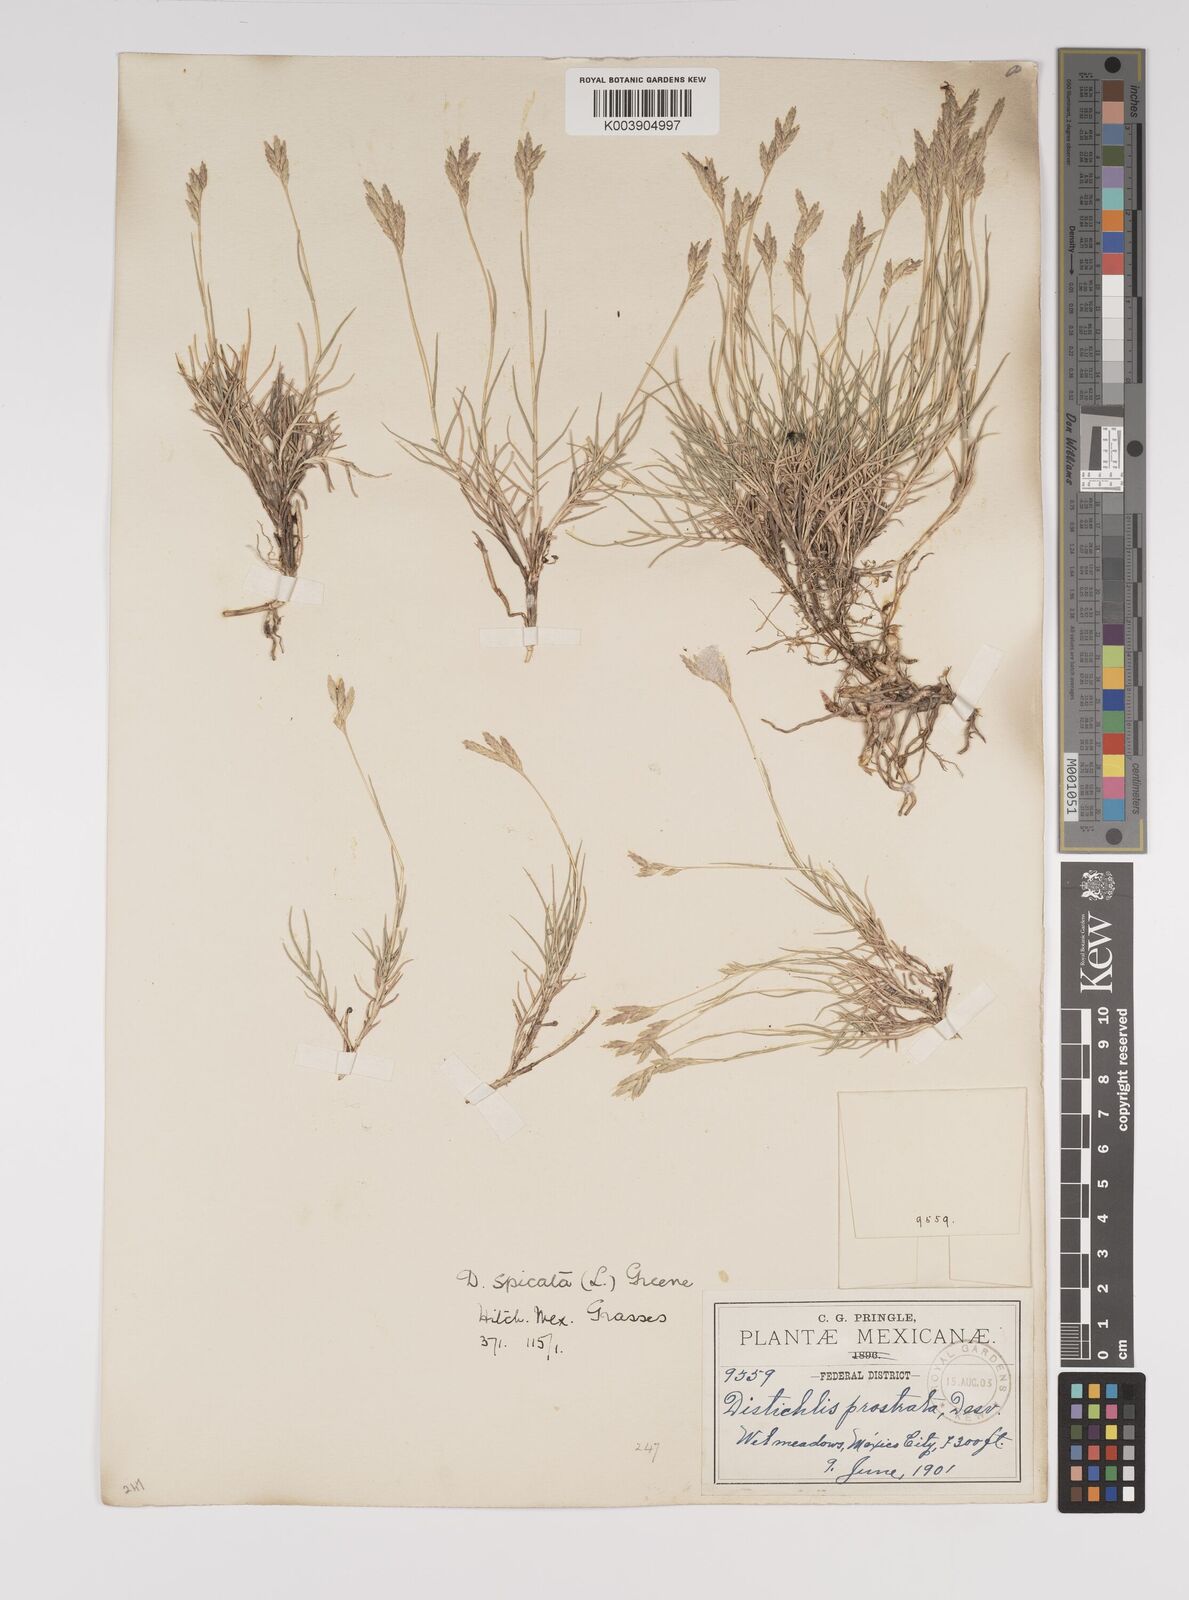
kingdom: Plantae
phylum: Tracheophyta
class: Liliopsida
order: Poales
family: Poaceae
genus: Distichlis
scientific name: Distichlis spicata
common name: Saltgrass
